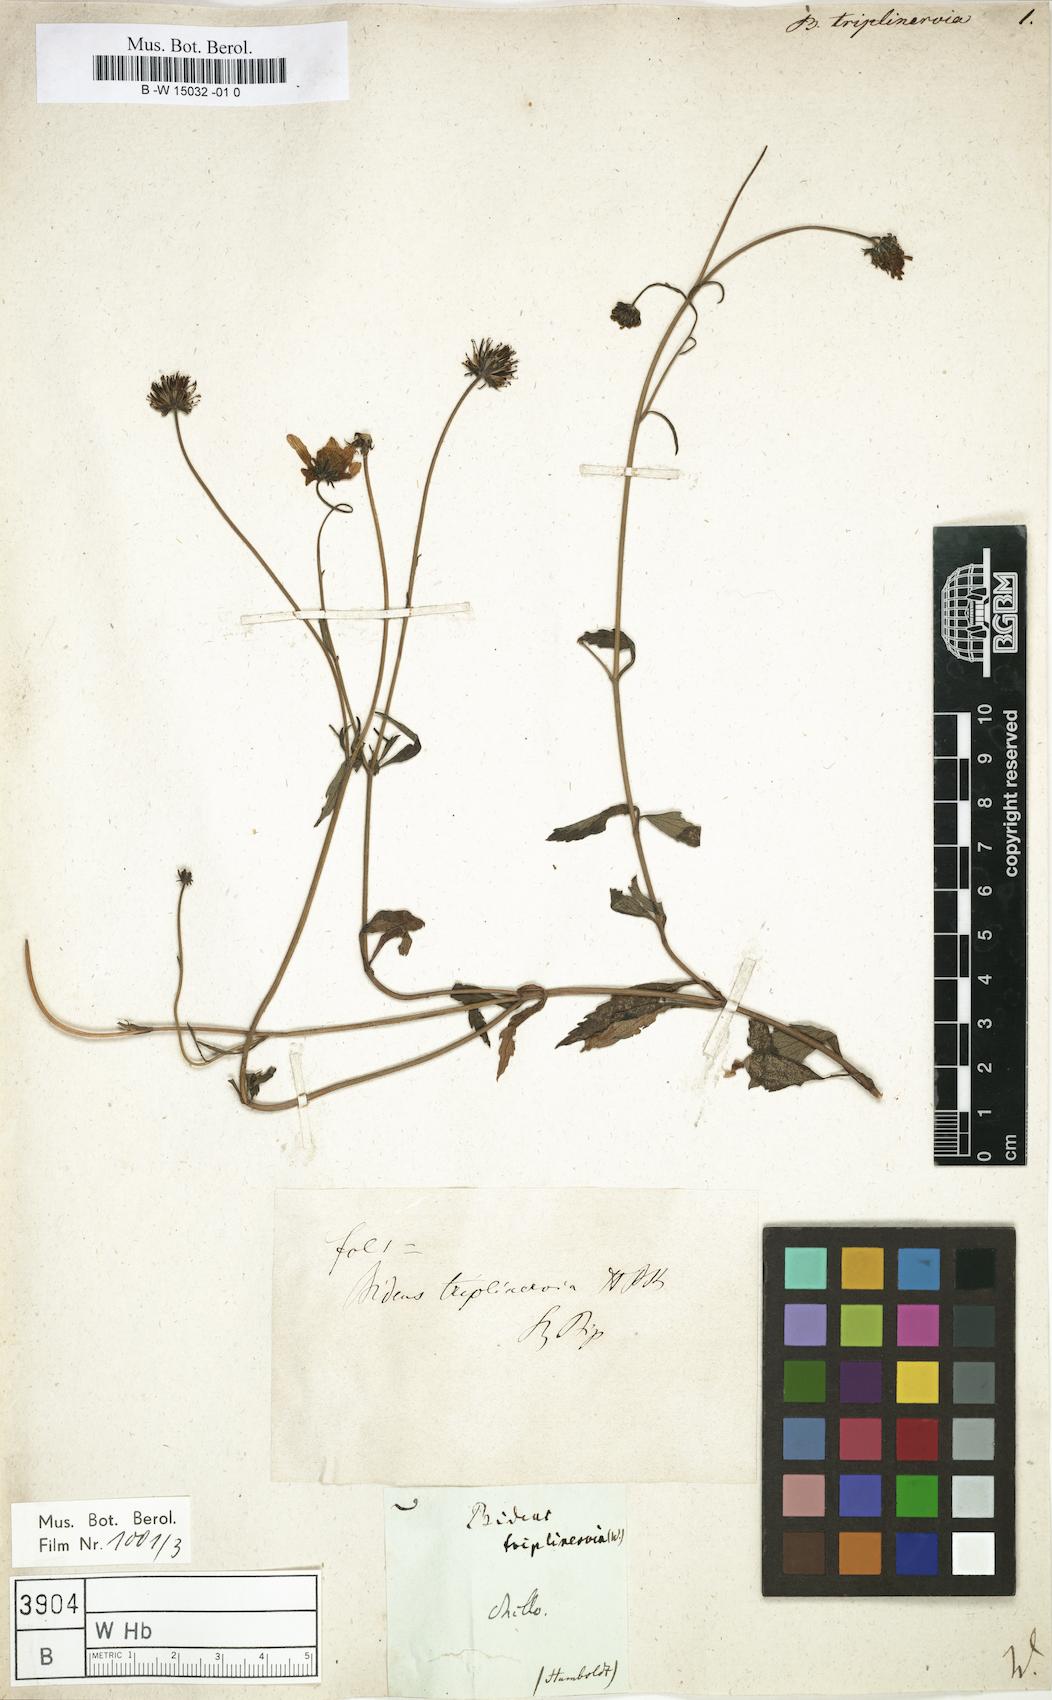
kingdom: Plantae
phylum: Tracheophyta
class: Magnoliopsida
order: Asterales
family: Asteraceae
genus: Bidens
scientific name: Bidens triplinervia
